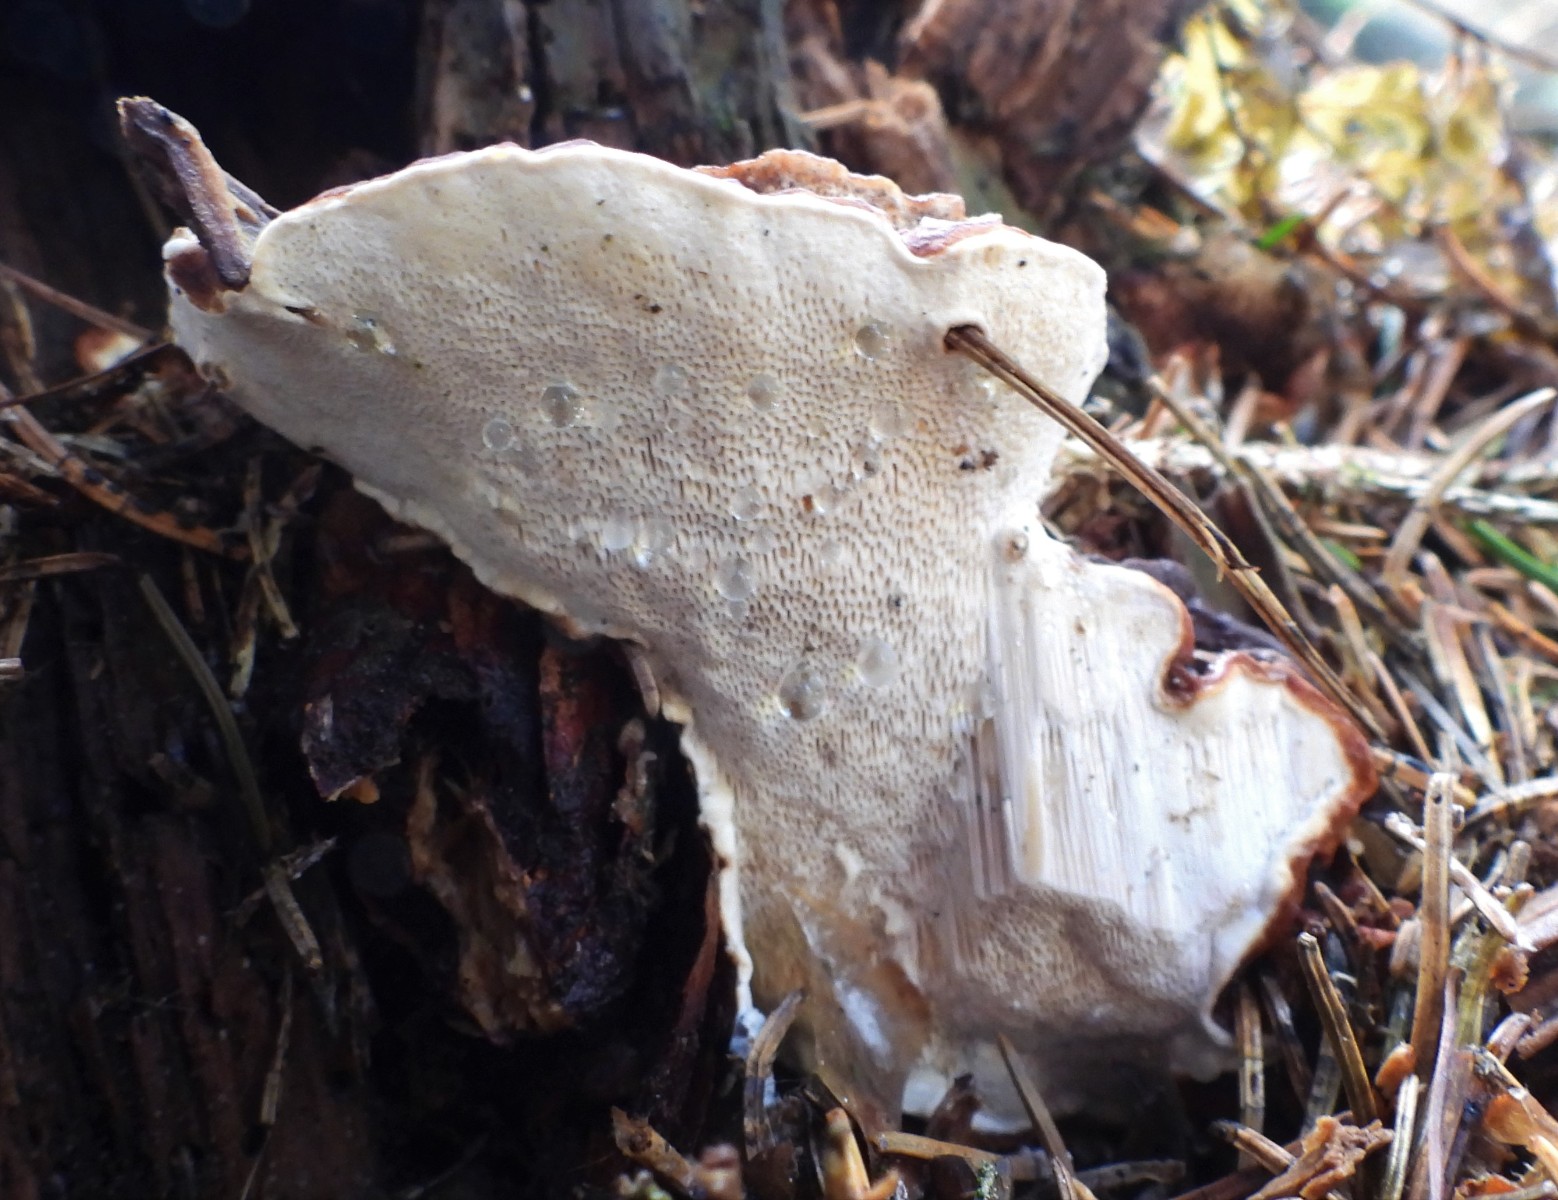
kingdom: Fungi
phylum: Basidiomycota
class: Agaricomycetes
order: Russulales
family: Bondarzewiaceae
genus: Heterobasidion
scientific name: Heterobasidion annosum
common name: almindelig rodfordærver
